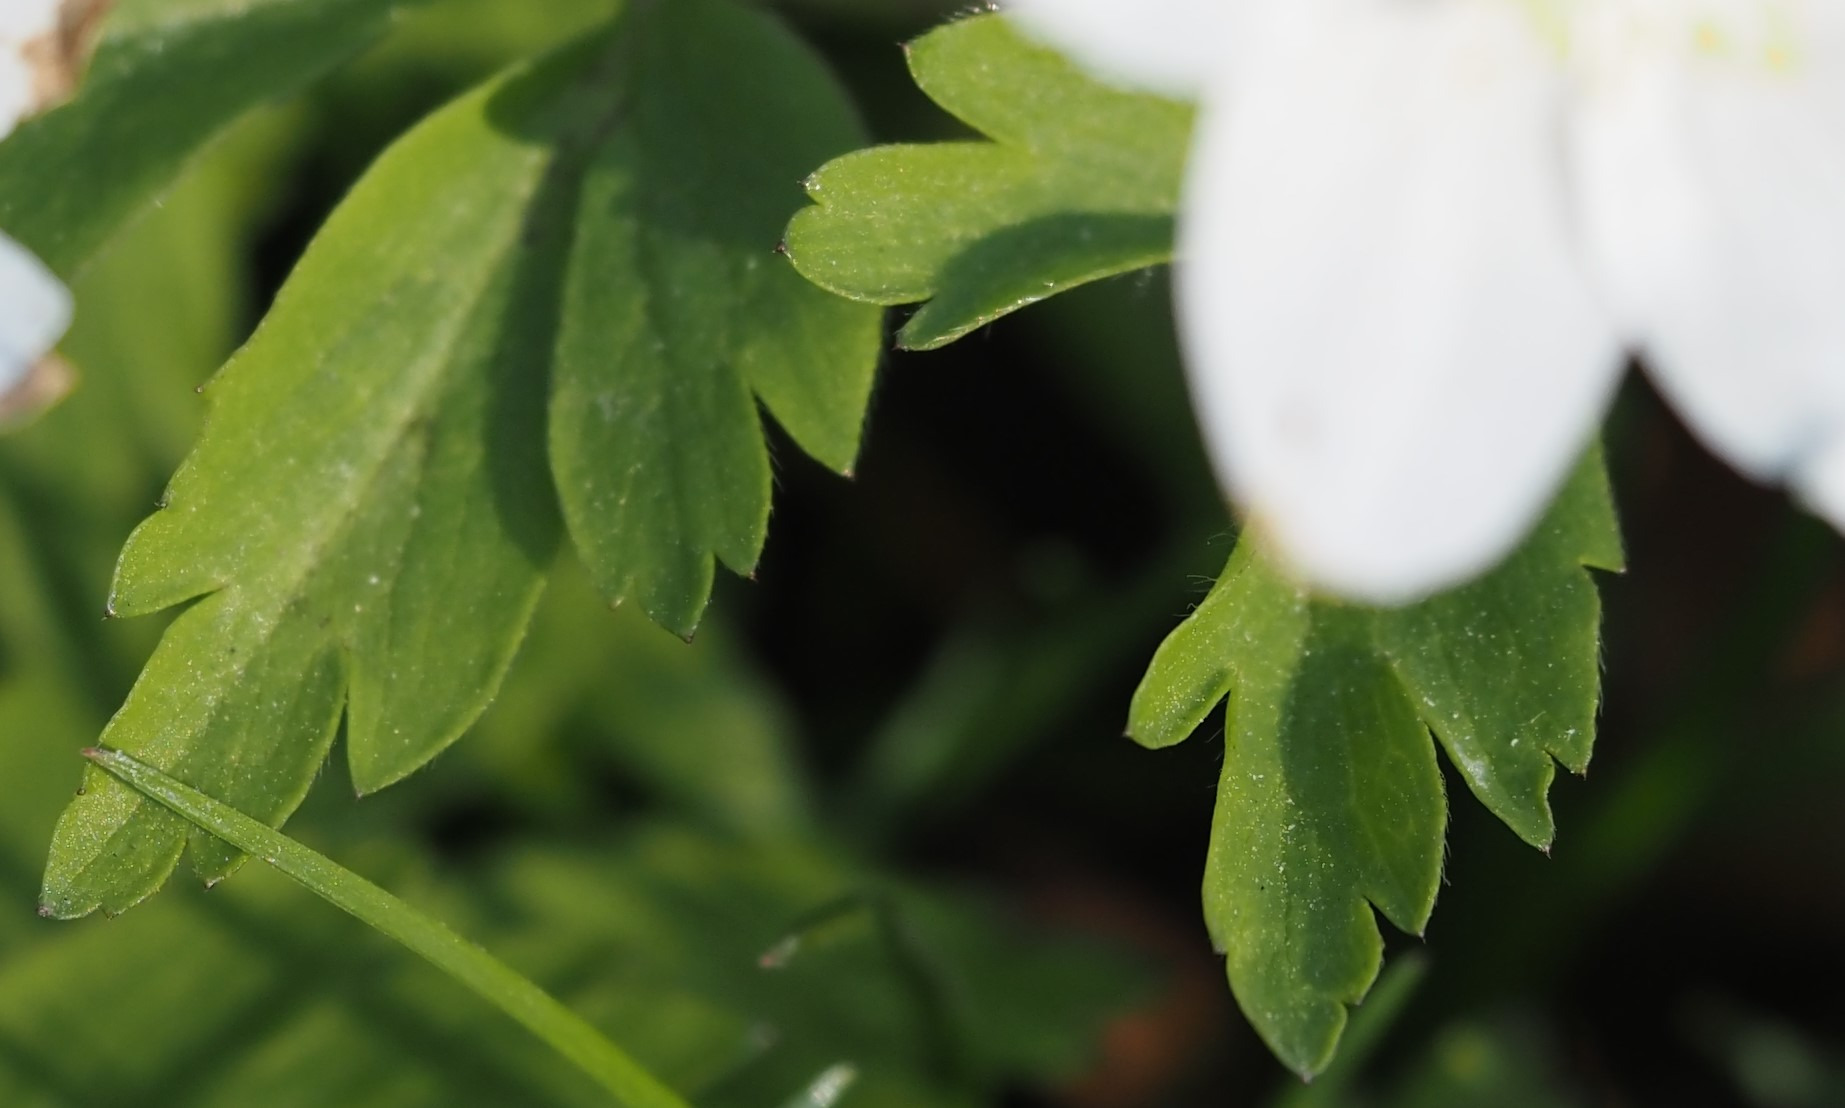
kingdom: Plantae
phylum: Tracheophyta
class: Magnoliopsida
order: Ranunculales
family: Ranunculaceae
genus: Anemone
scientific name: Anemone nemorosa
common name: Hvid anemone
